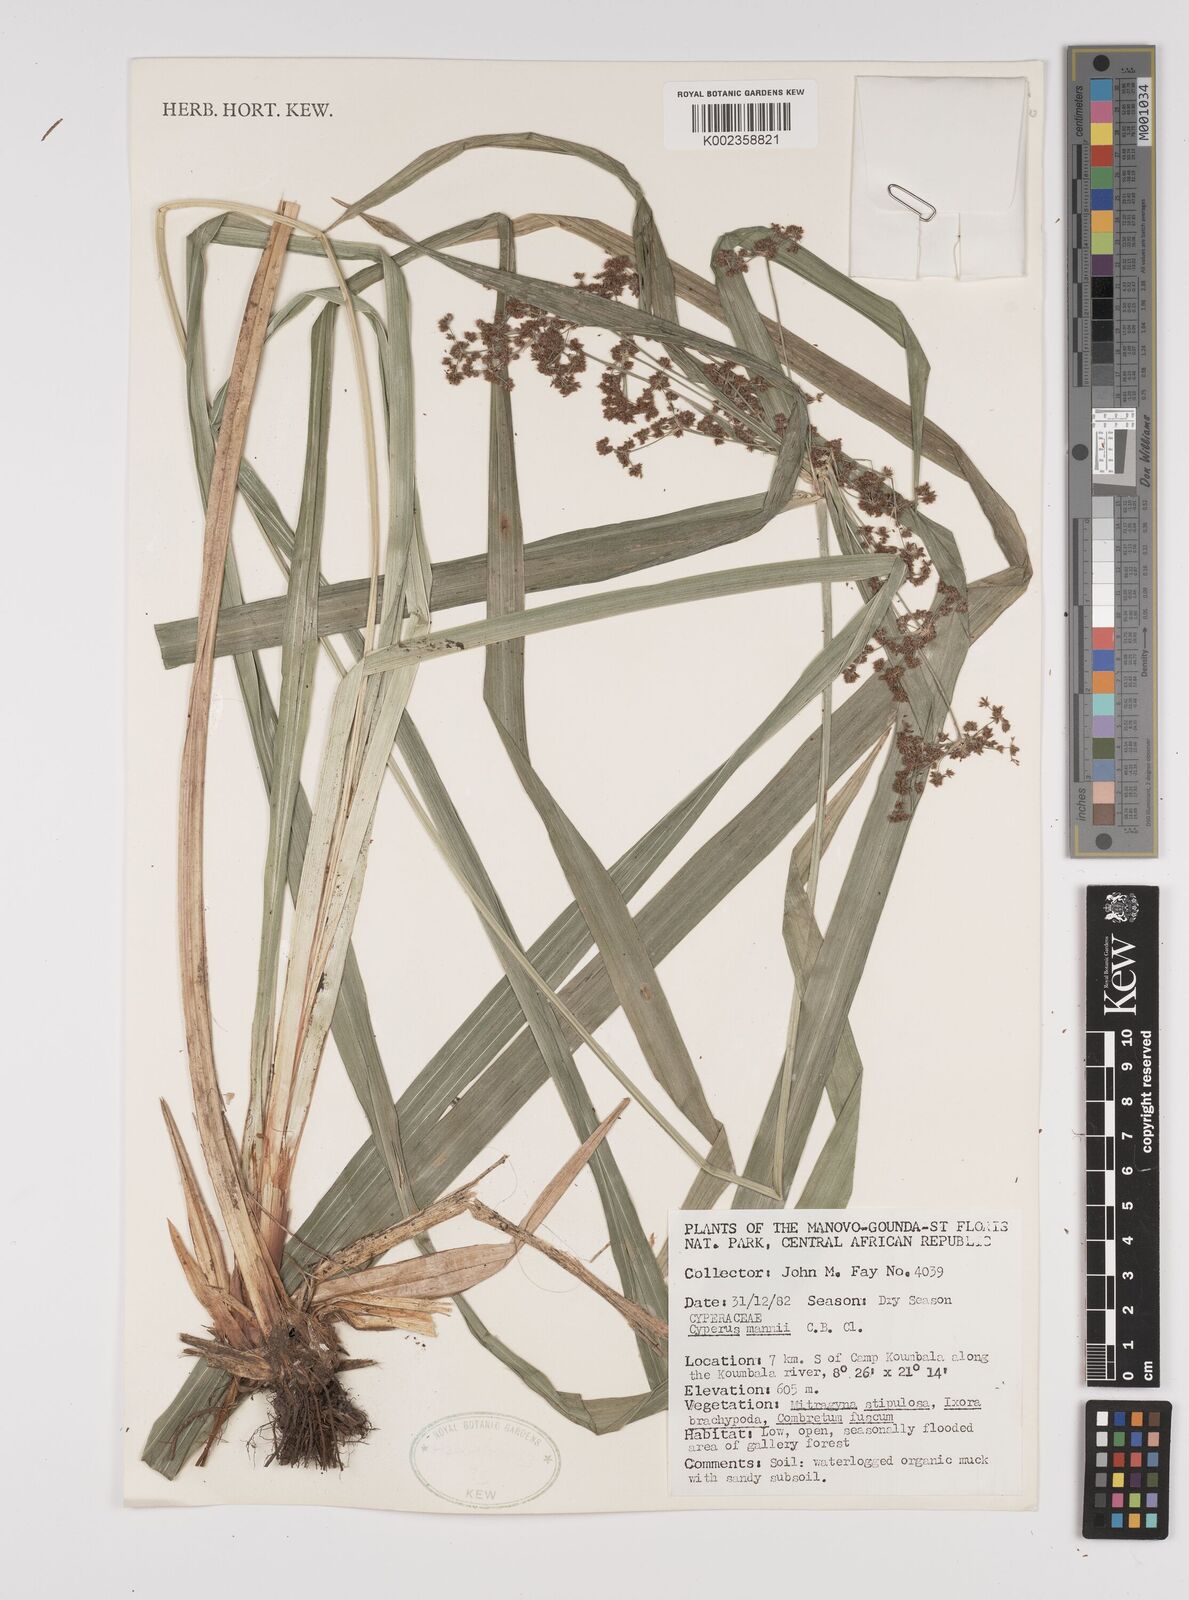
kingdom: Plantae
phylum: Tracheophyta
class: Liliopsida
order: Poales
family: Cyperaceae
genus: Cyperus
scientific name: Cyperus baronii
